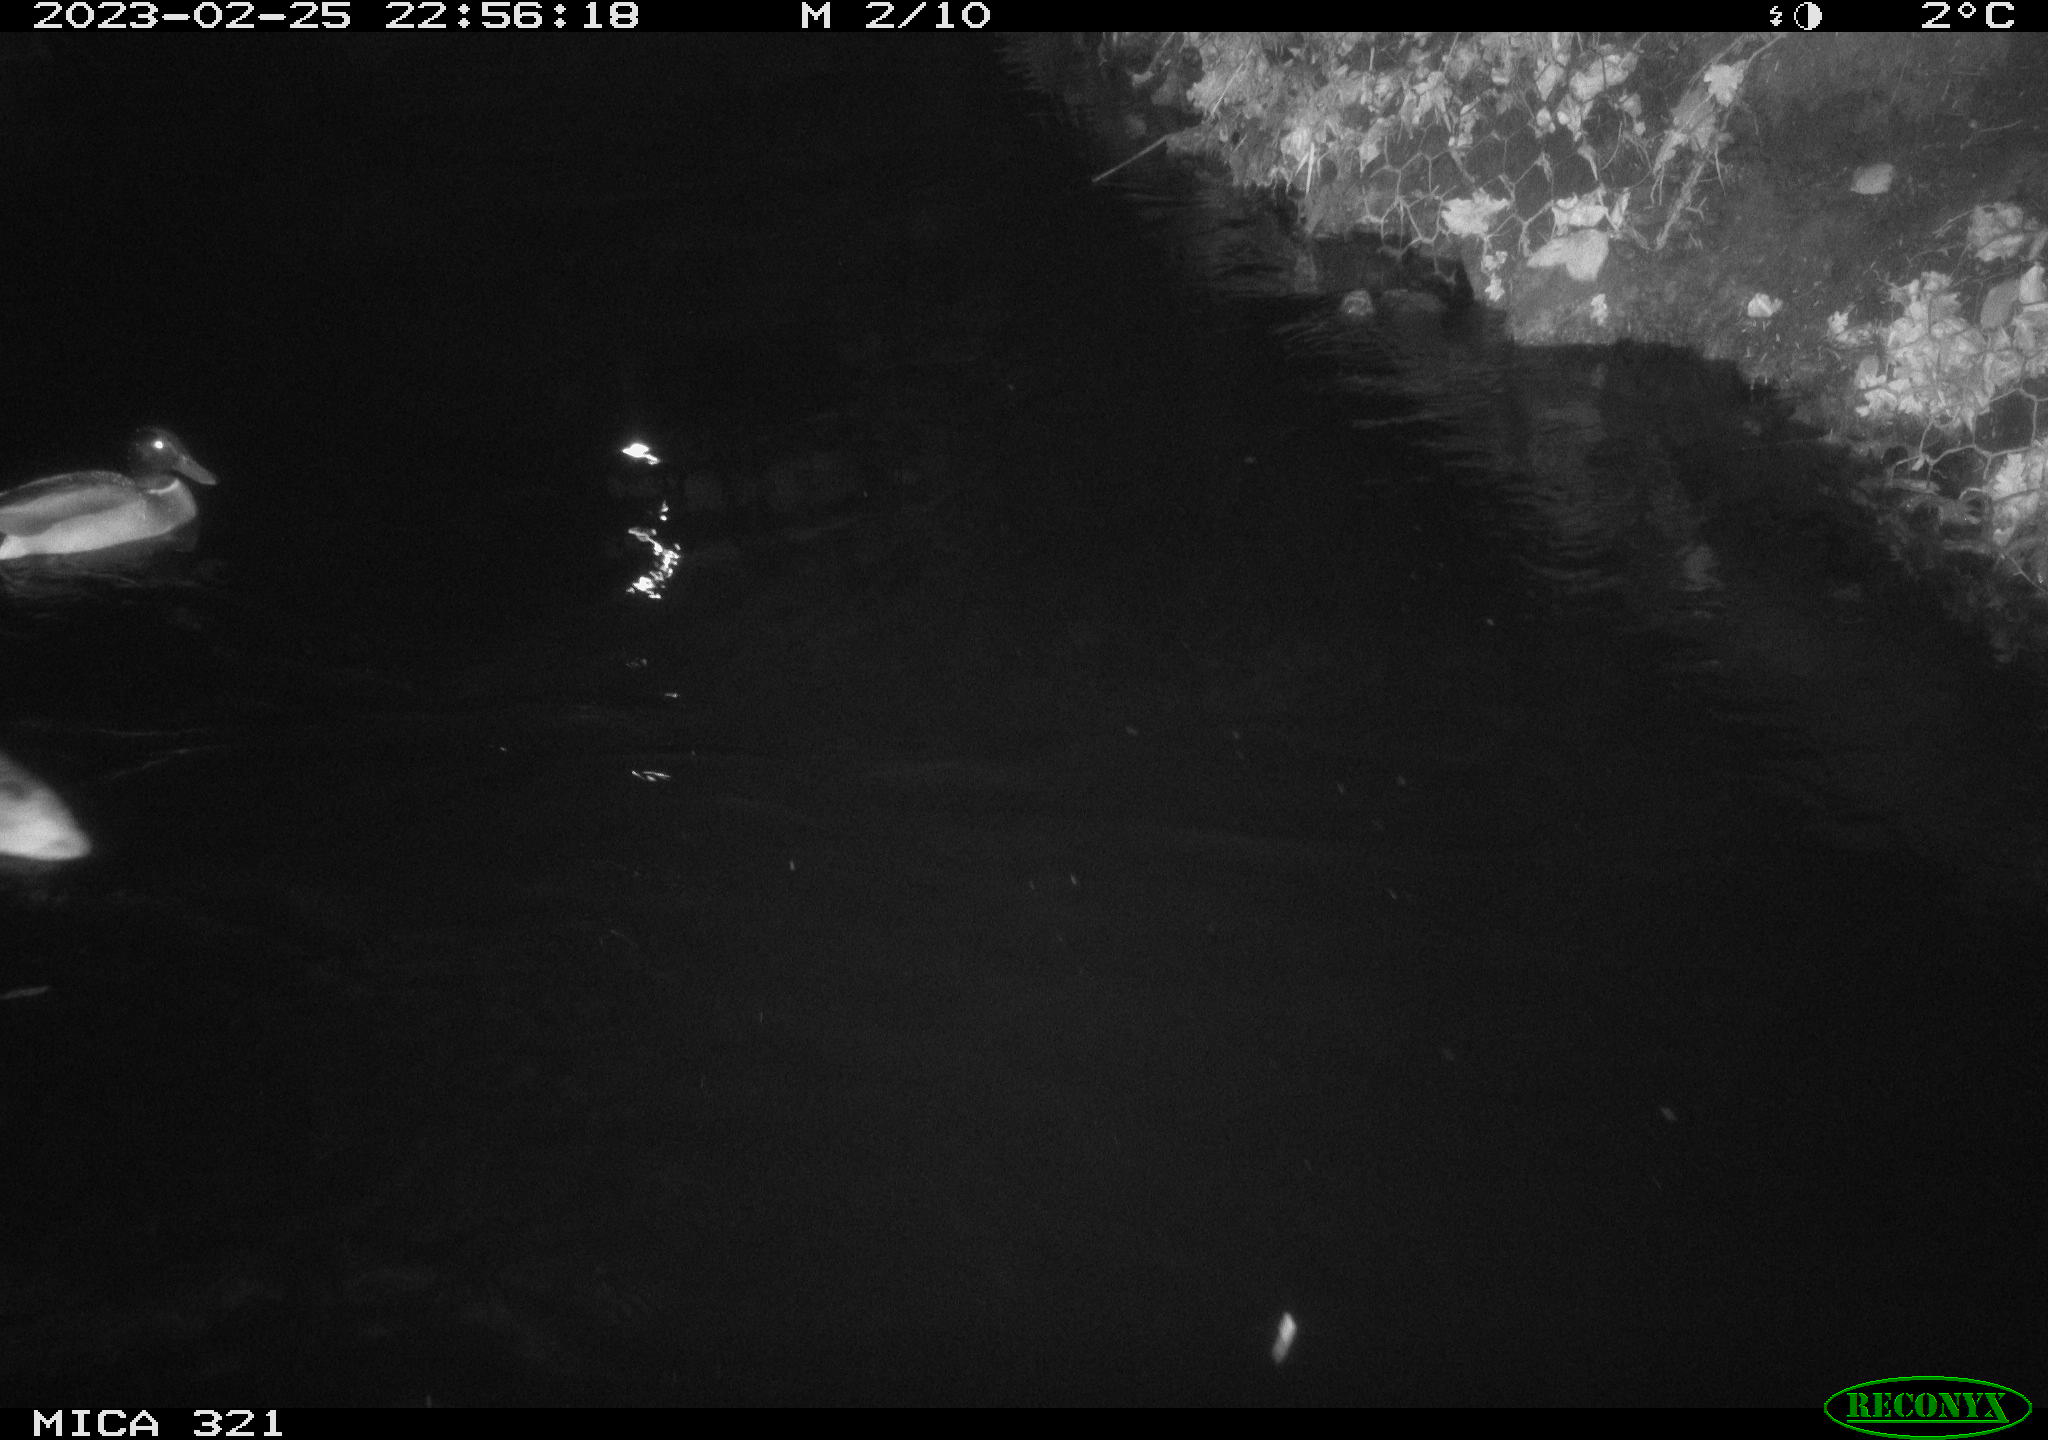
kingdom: Animalia
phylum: Chordata
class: Aves
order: Anseriformes
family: Anatidae
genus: Anas
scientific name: Anas
